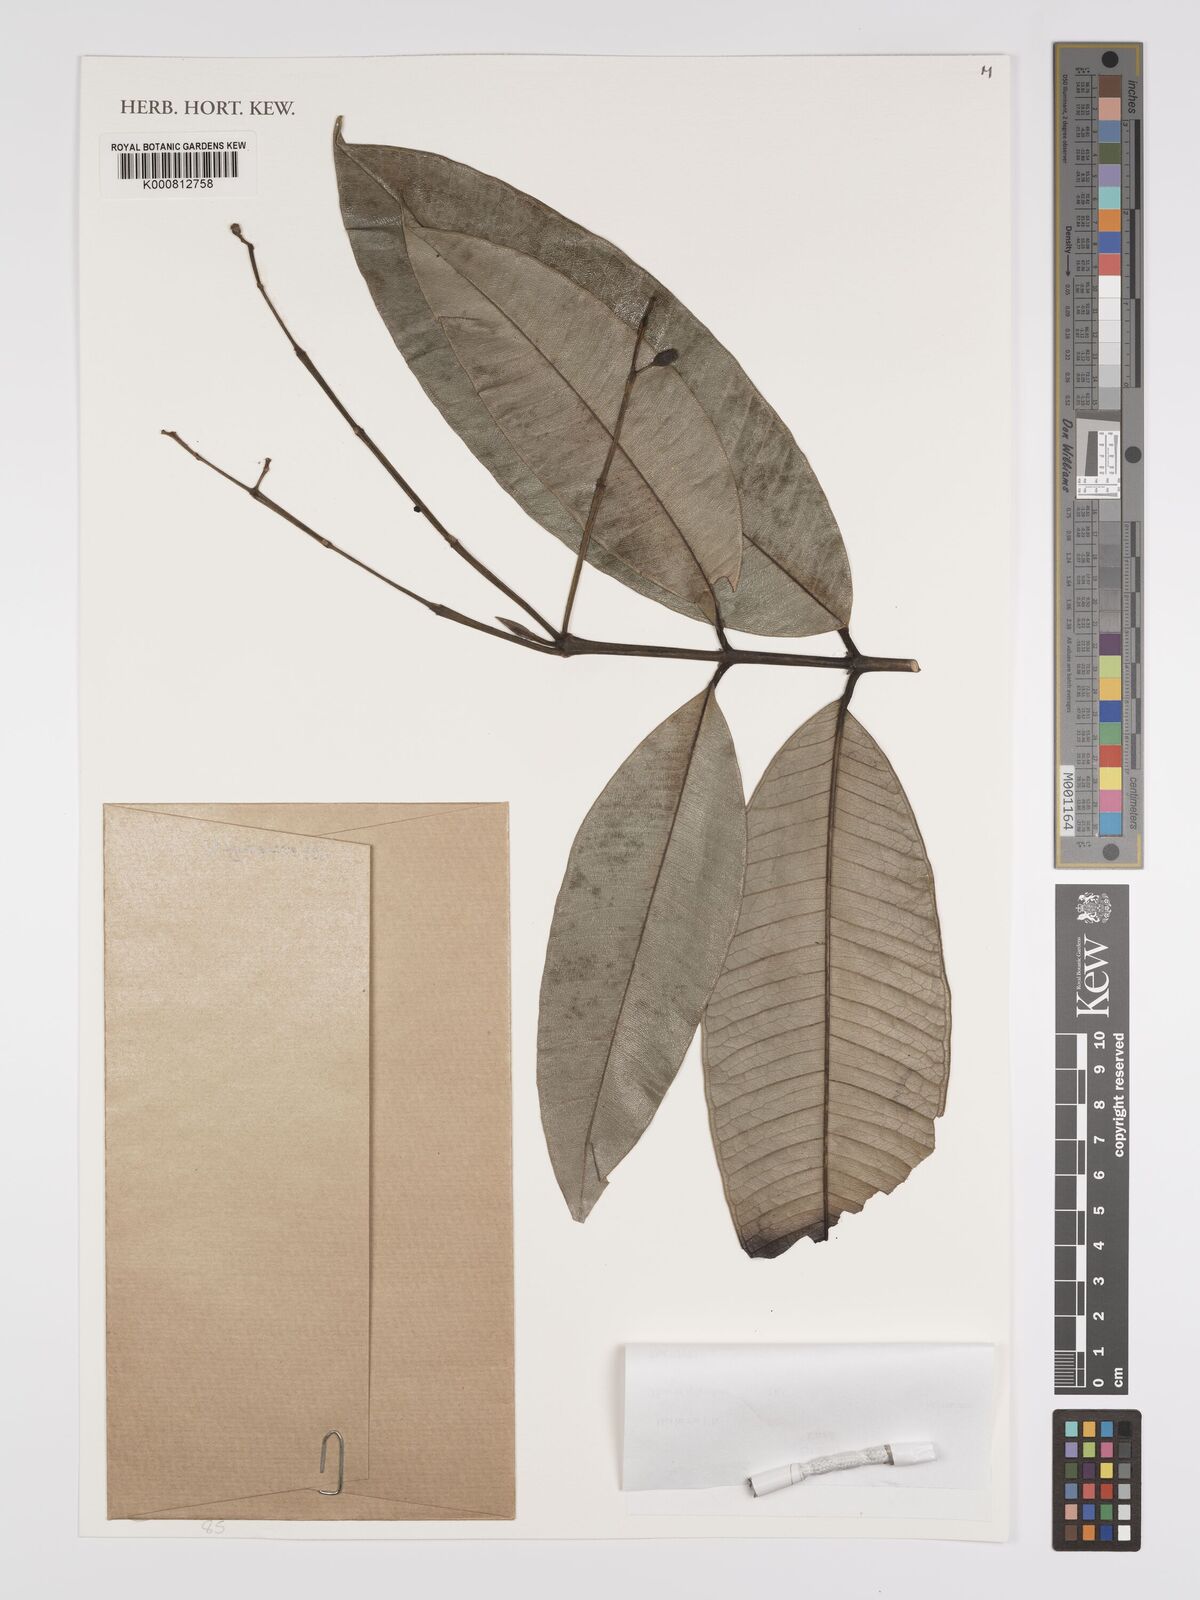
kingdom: Plantae
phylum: Tracheophyta
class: Magnoliopsida
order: Myrtales
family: Myrtaceae
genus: Myrcia
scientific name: Myrcia splendens
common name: Surinam cherry
